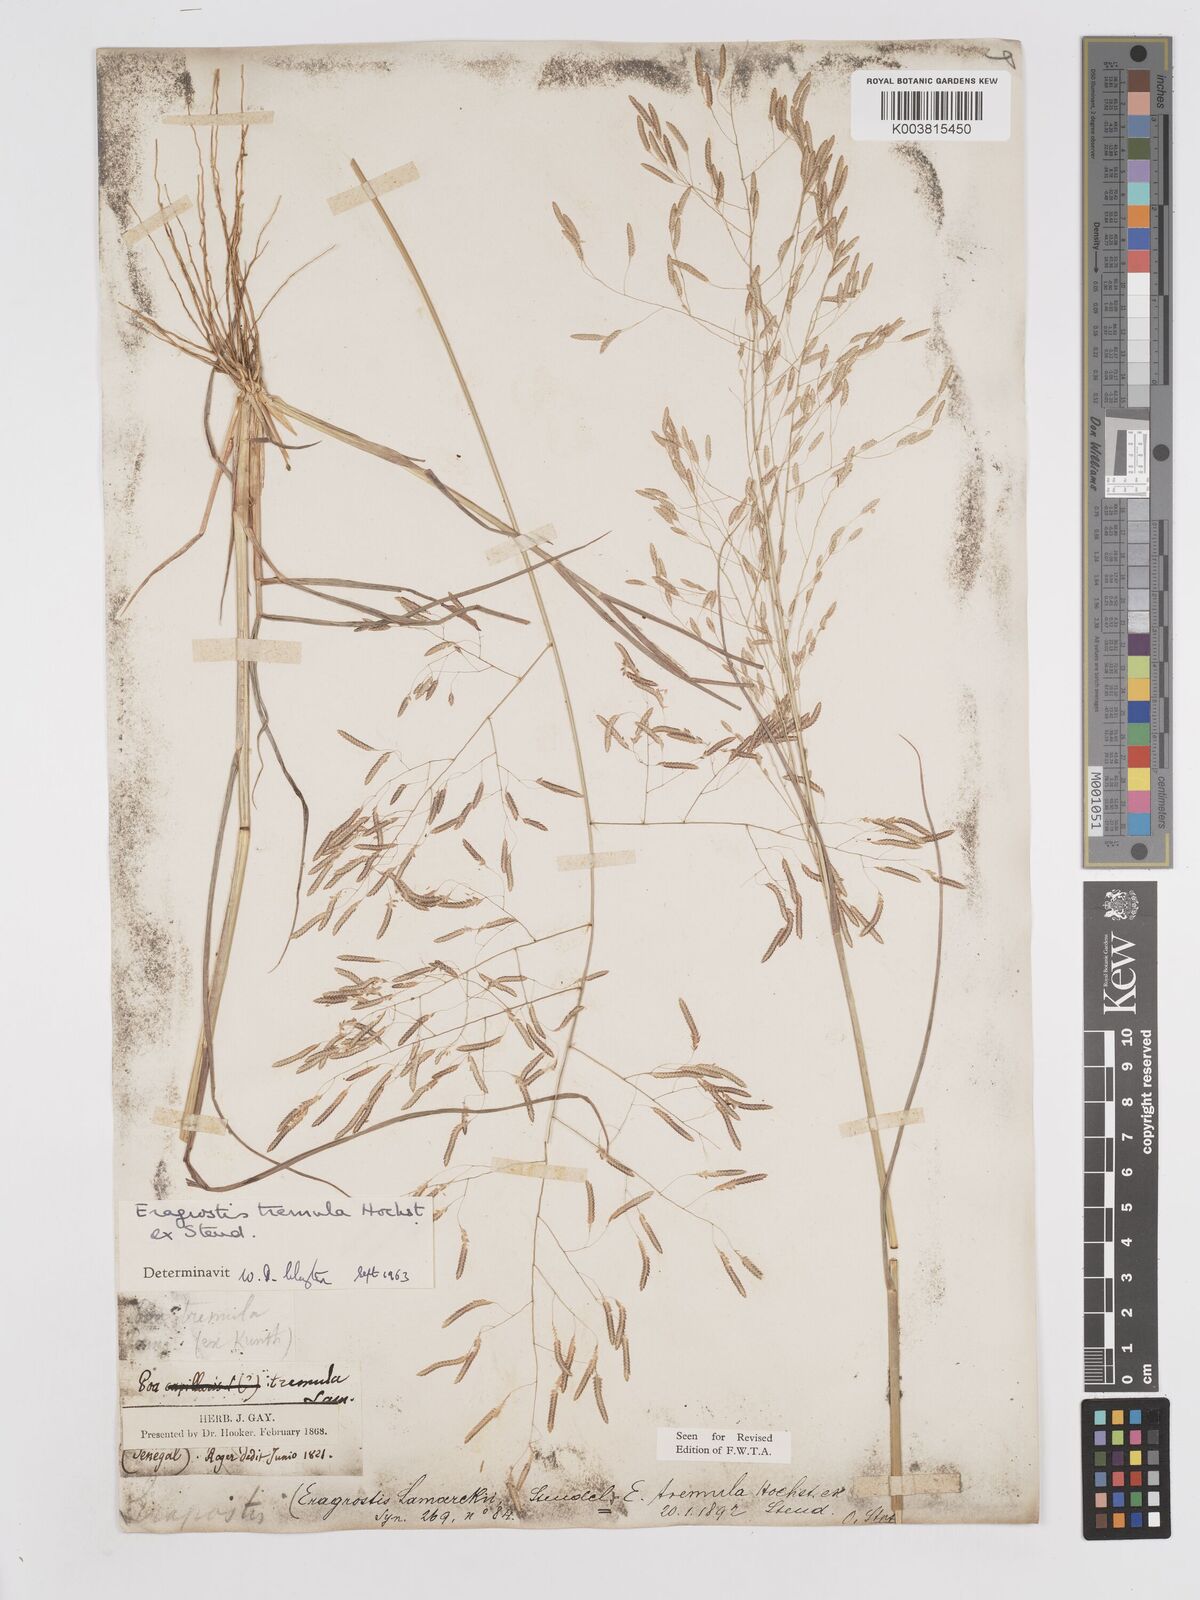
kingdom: Plantae
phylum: Tracheophyta
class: Liliopsida
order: Poales
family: Poaceae
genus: Eragrostis
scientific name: Eragrostis tremula
